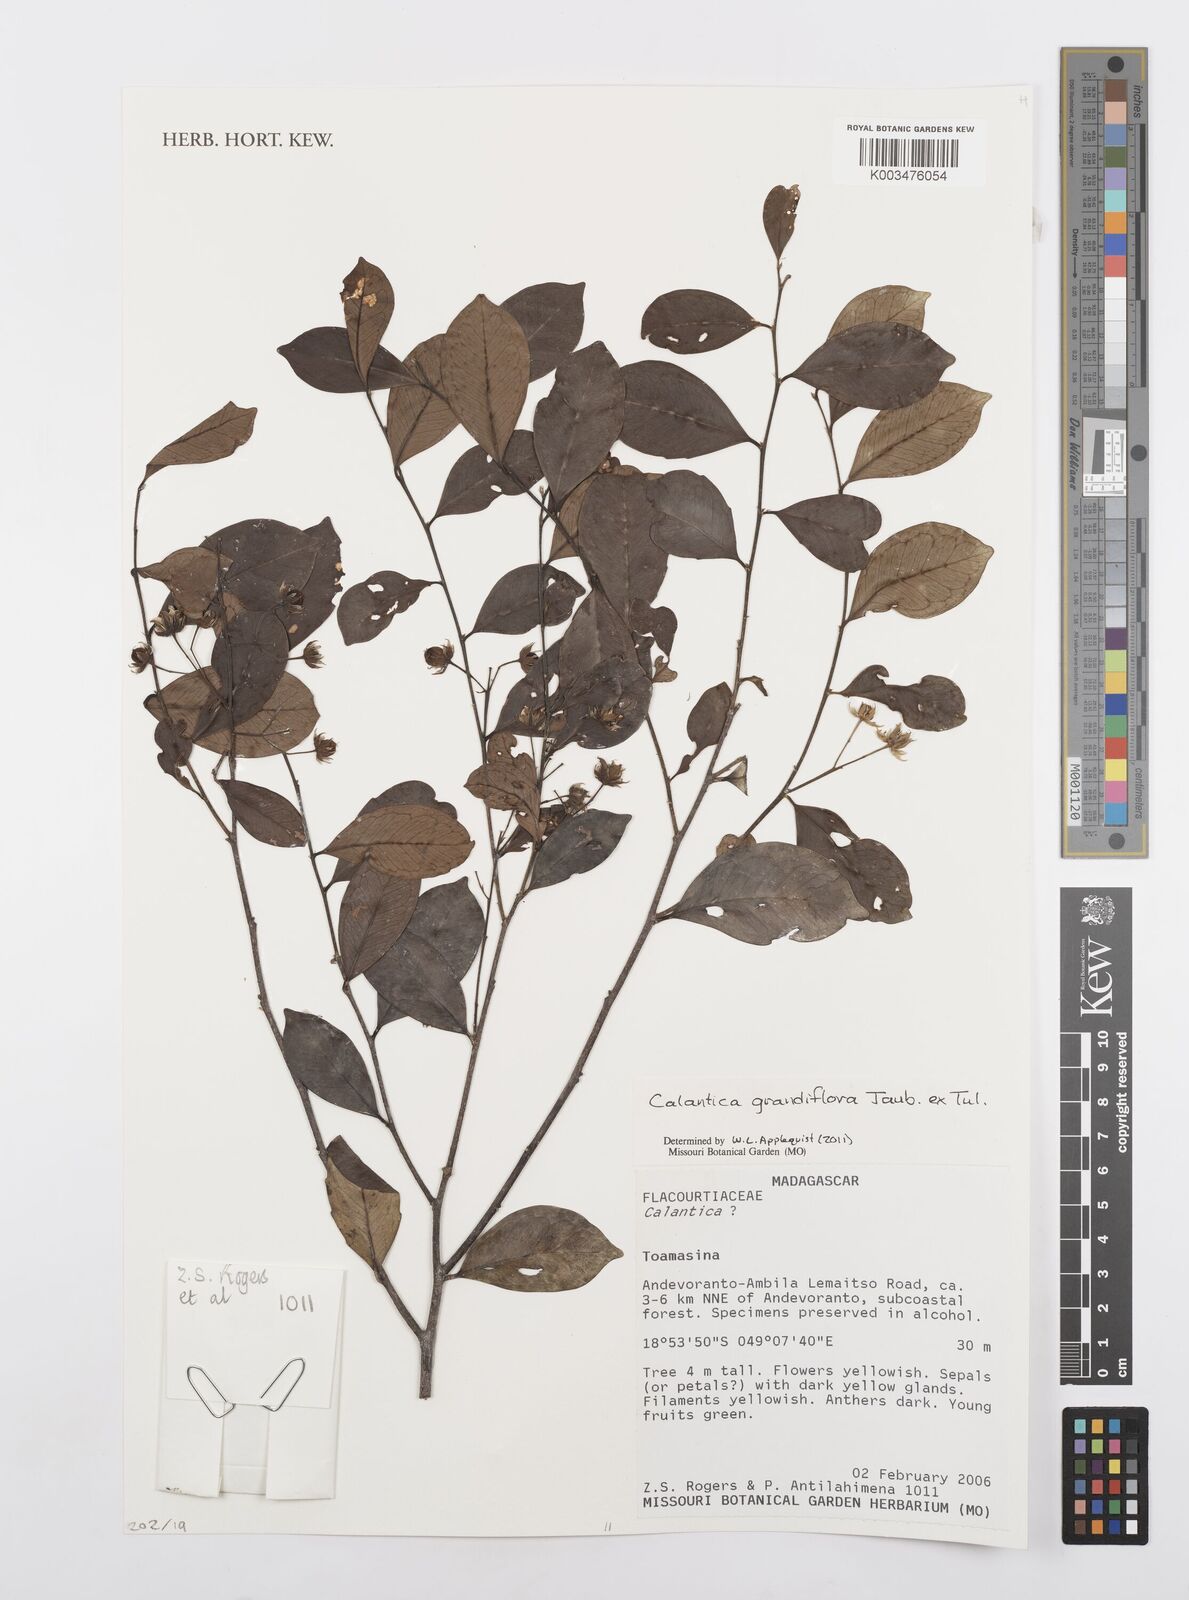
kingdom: Plantae
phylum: Tracheophyta
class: Magnoliopsida
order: Malpighiales
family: Salicaceae
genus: Calantica
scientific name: Calantica grandiflora
